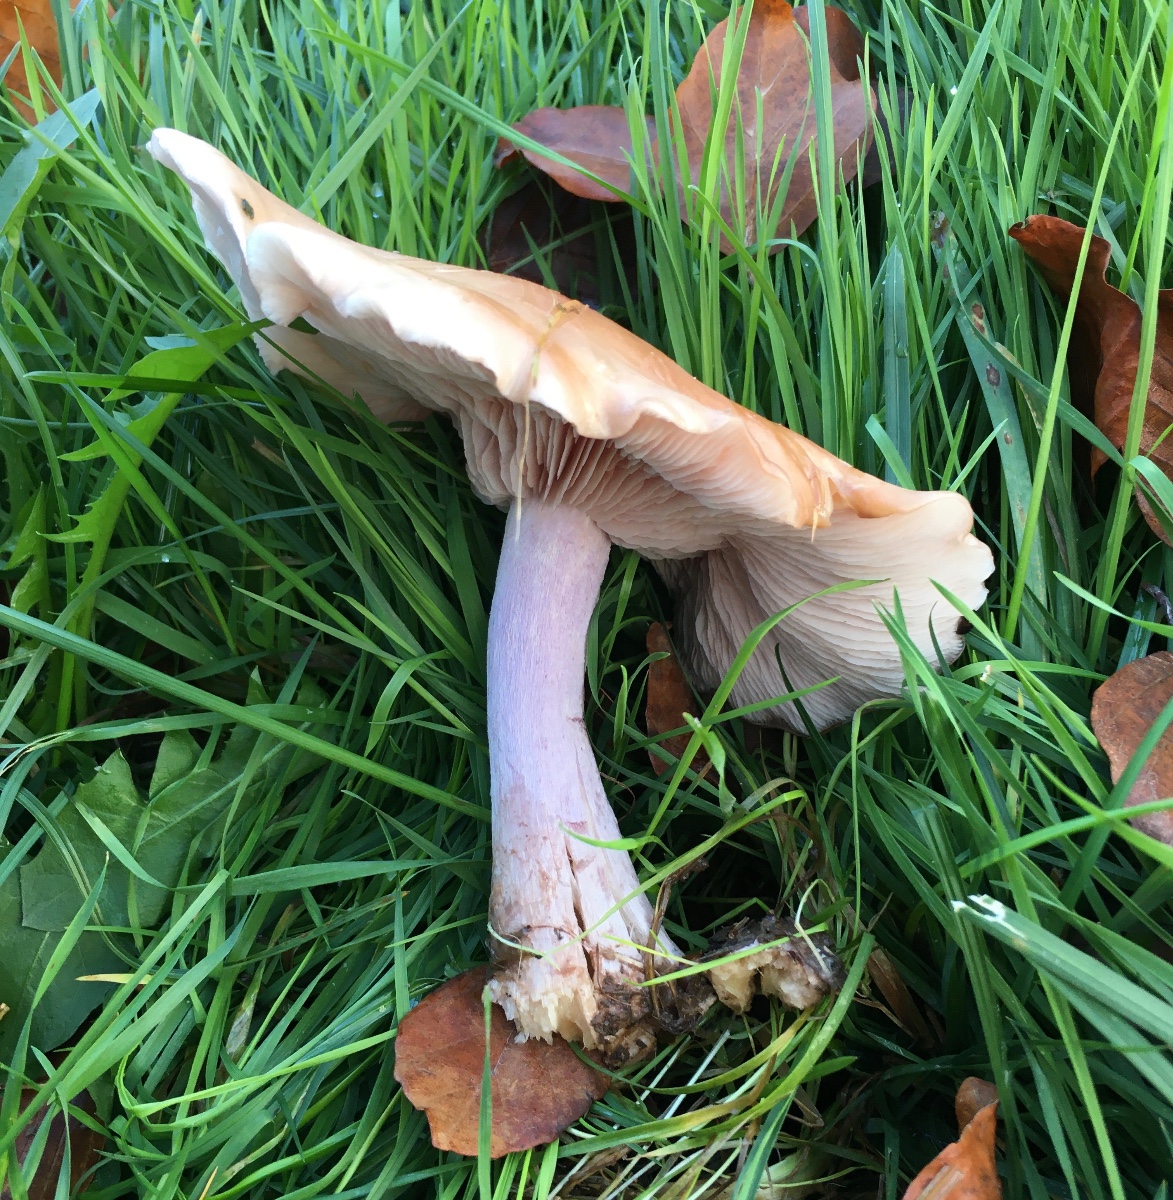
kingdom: Fungi
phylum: Basidiomycota
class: Agaricomycetes
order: Agaricales
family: Tricholomataceae
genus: Lepista
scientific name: Lepista personata
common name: bleg hekseringshat
